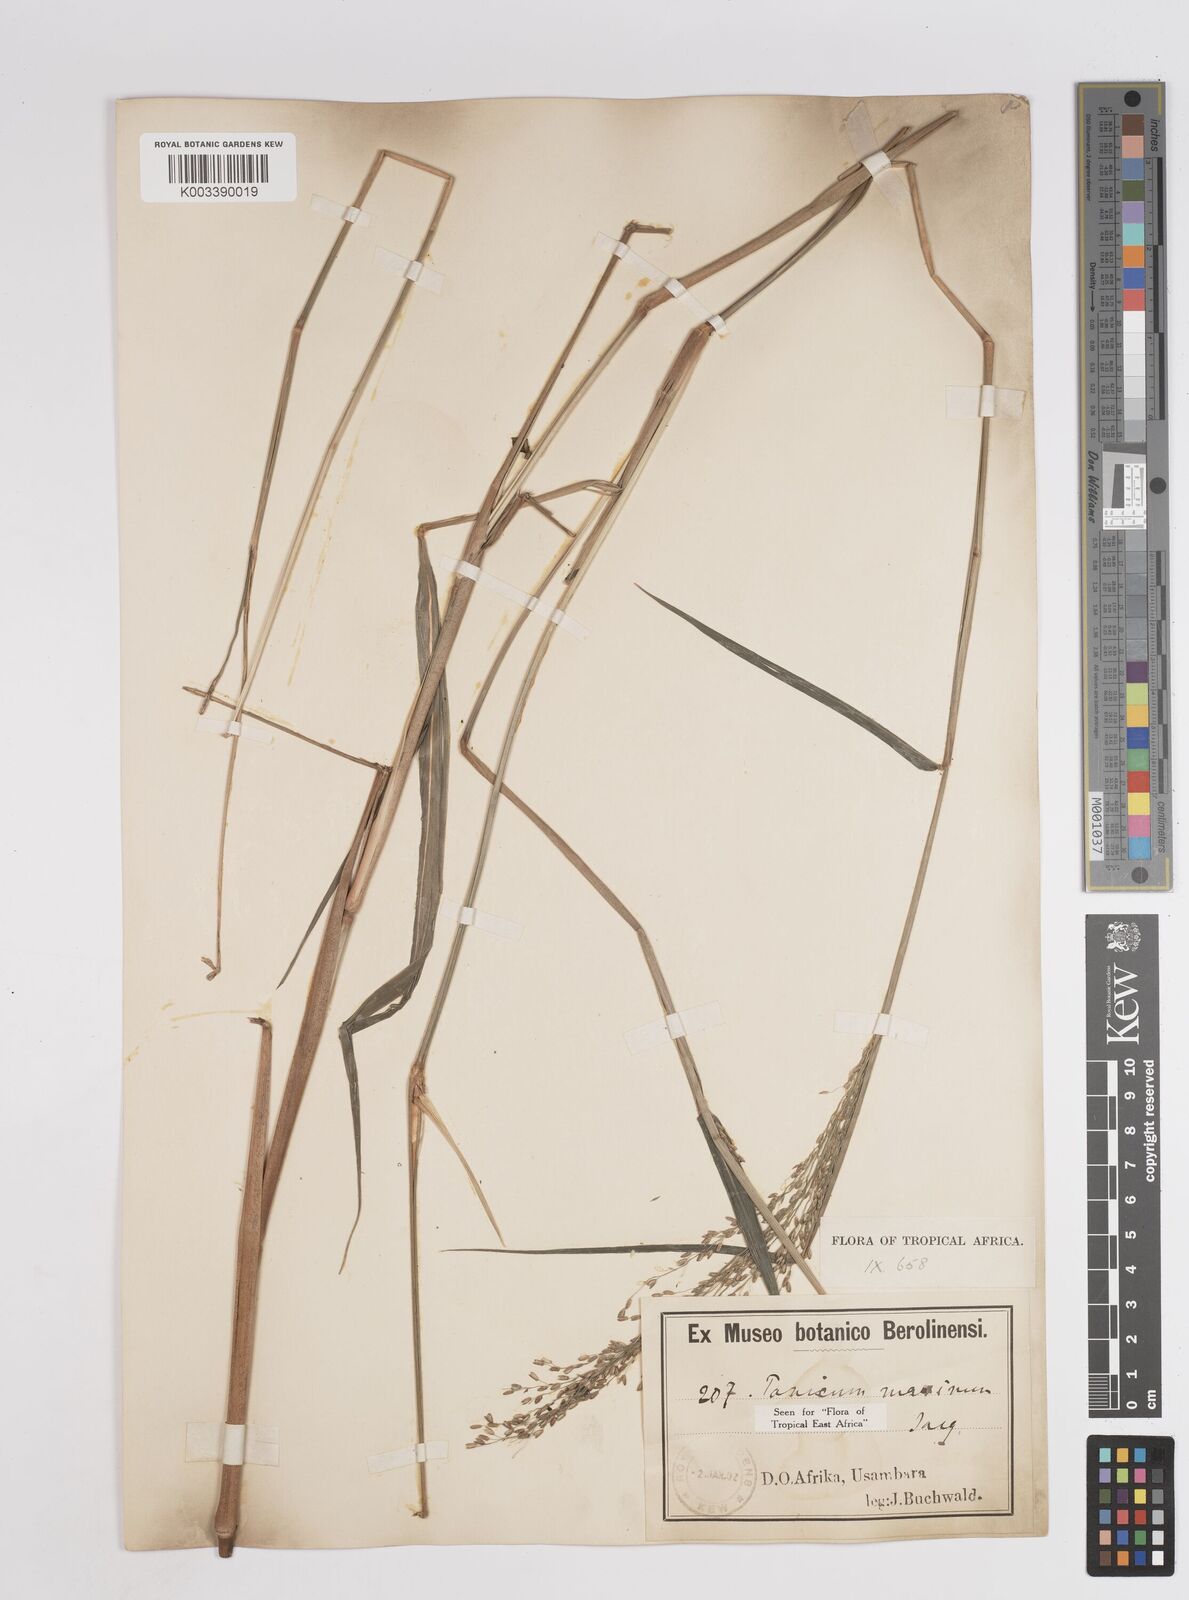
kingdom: Plantae
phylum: Tracheophyta
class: Liliopsida
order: Poales
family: Poaceae
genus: Megathyrsus
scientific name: Megathyrsus maximus
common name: Guineagrass
